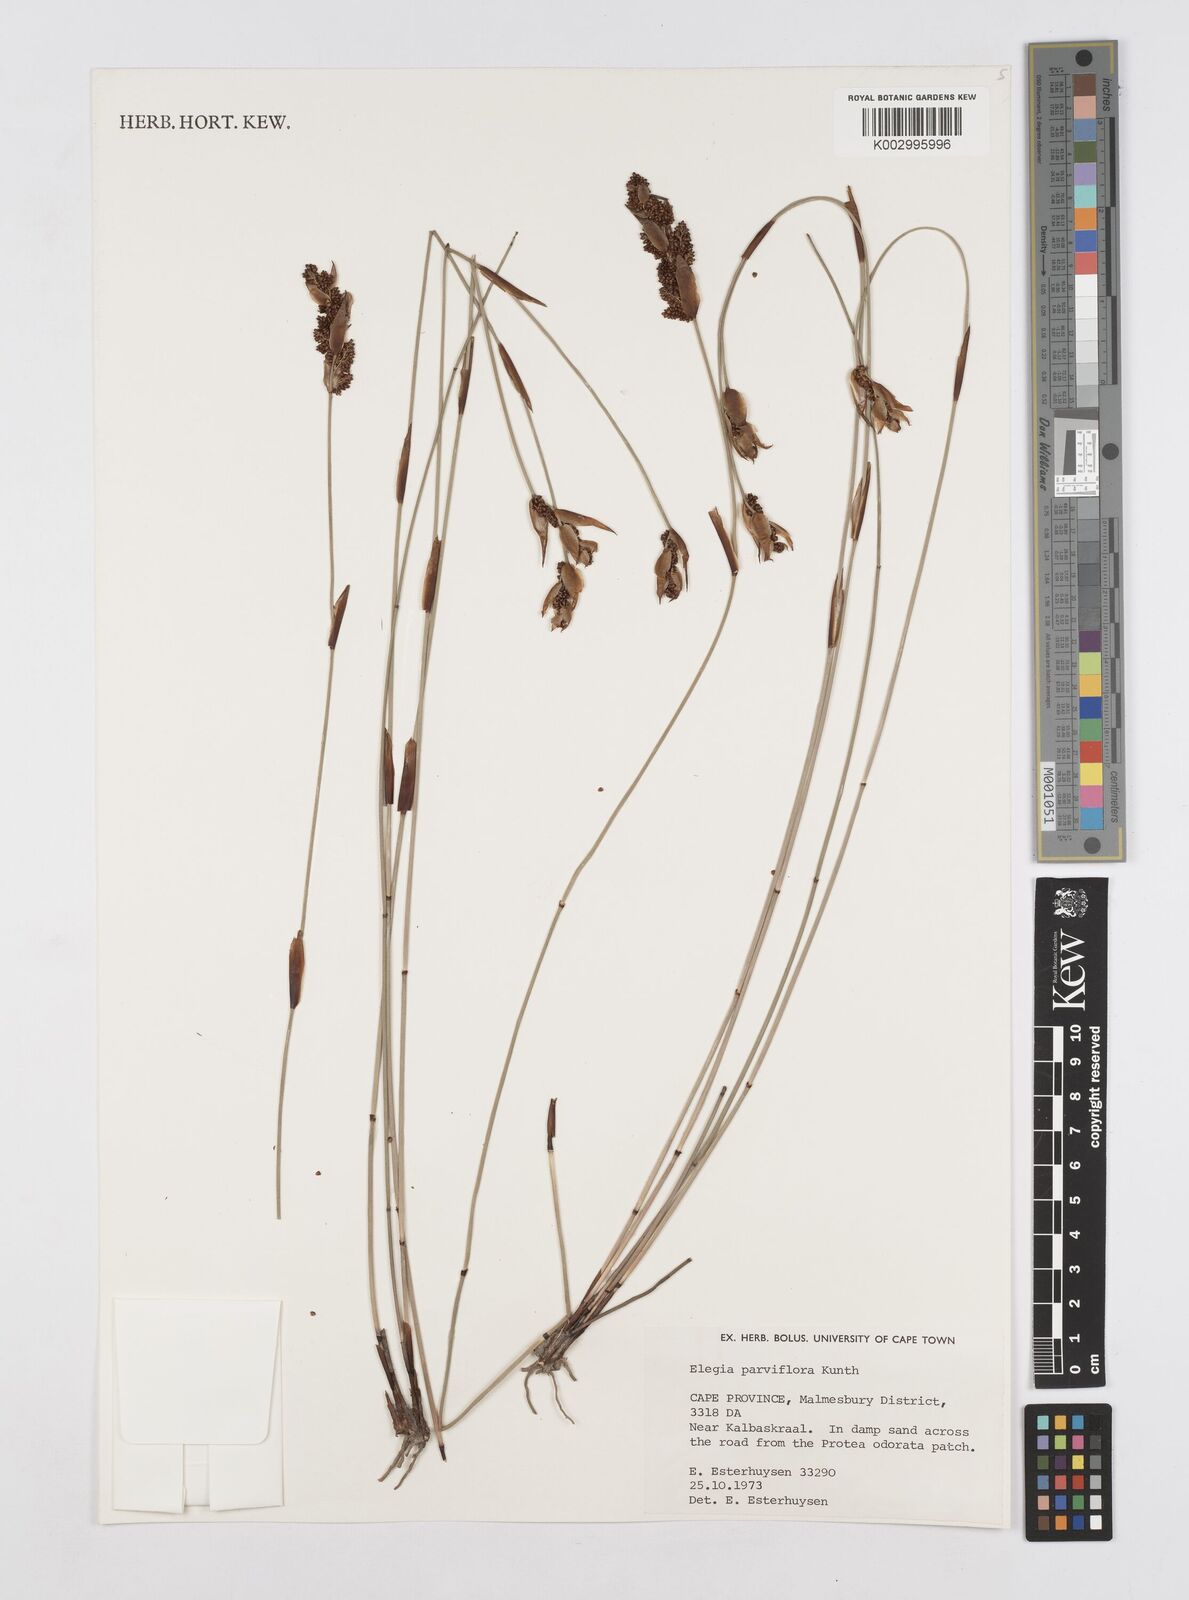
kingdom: Plantae
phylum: Tracheophyta
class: Liliopsida
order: Poales
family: Restionaceae
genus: Cannomois
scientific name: Cannomois parviflora
